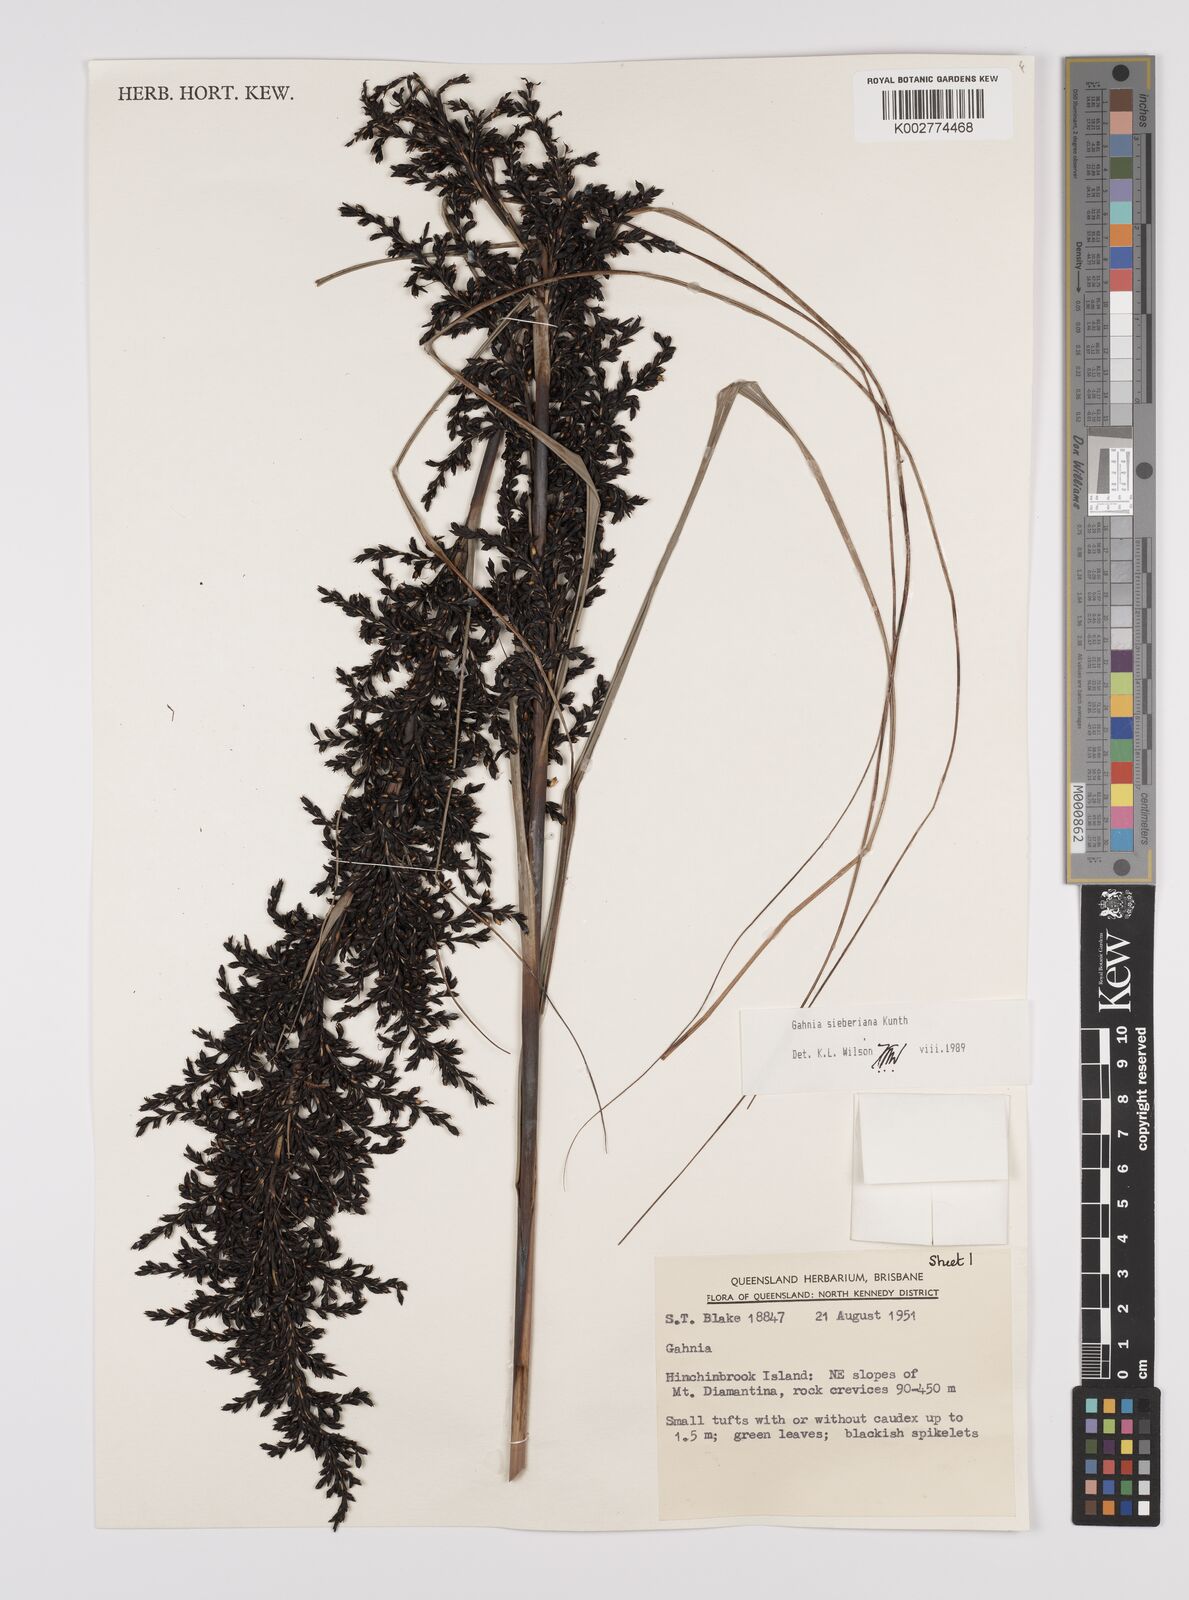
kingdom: Plantae
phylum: Tracheophyta
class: Liliopsida
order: Poales
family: Cyperaceae
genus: Gahnia
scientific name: Gahnia sieberiana
